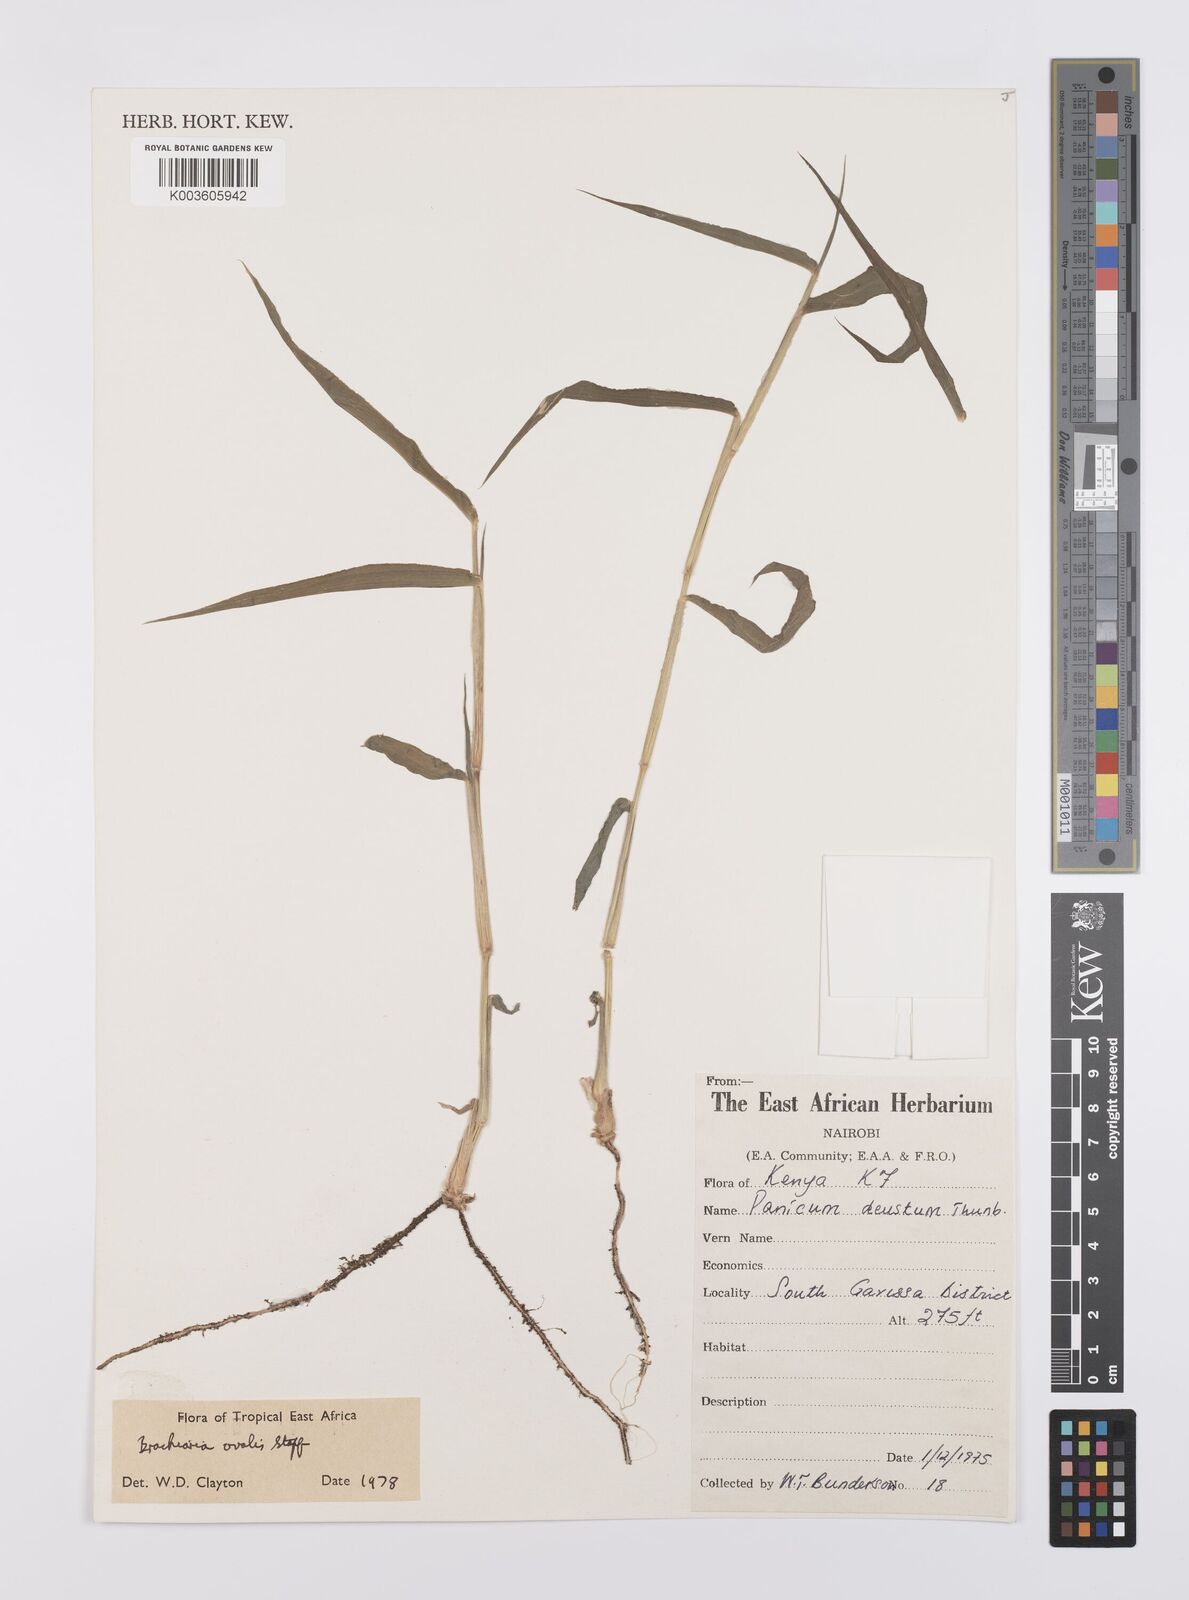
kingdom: Plantae
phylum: Tracheophyta
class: Liliopsida
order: Poales
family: Poaceae
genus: Urochloa
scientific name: Urochloa ovalis
